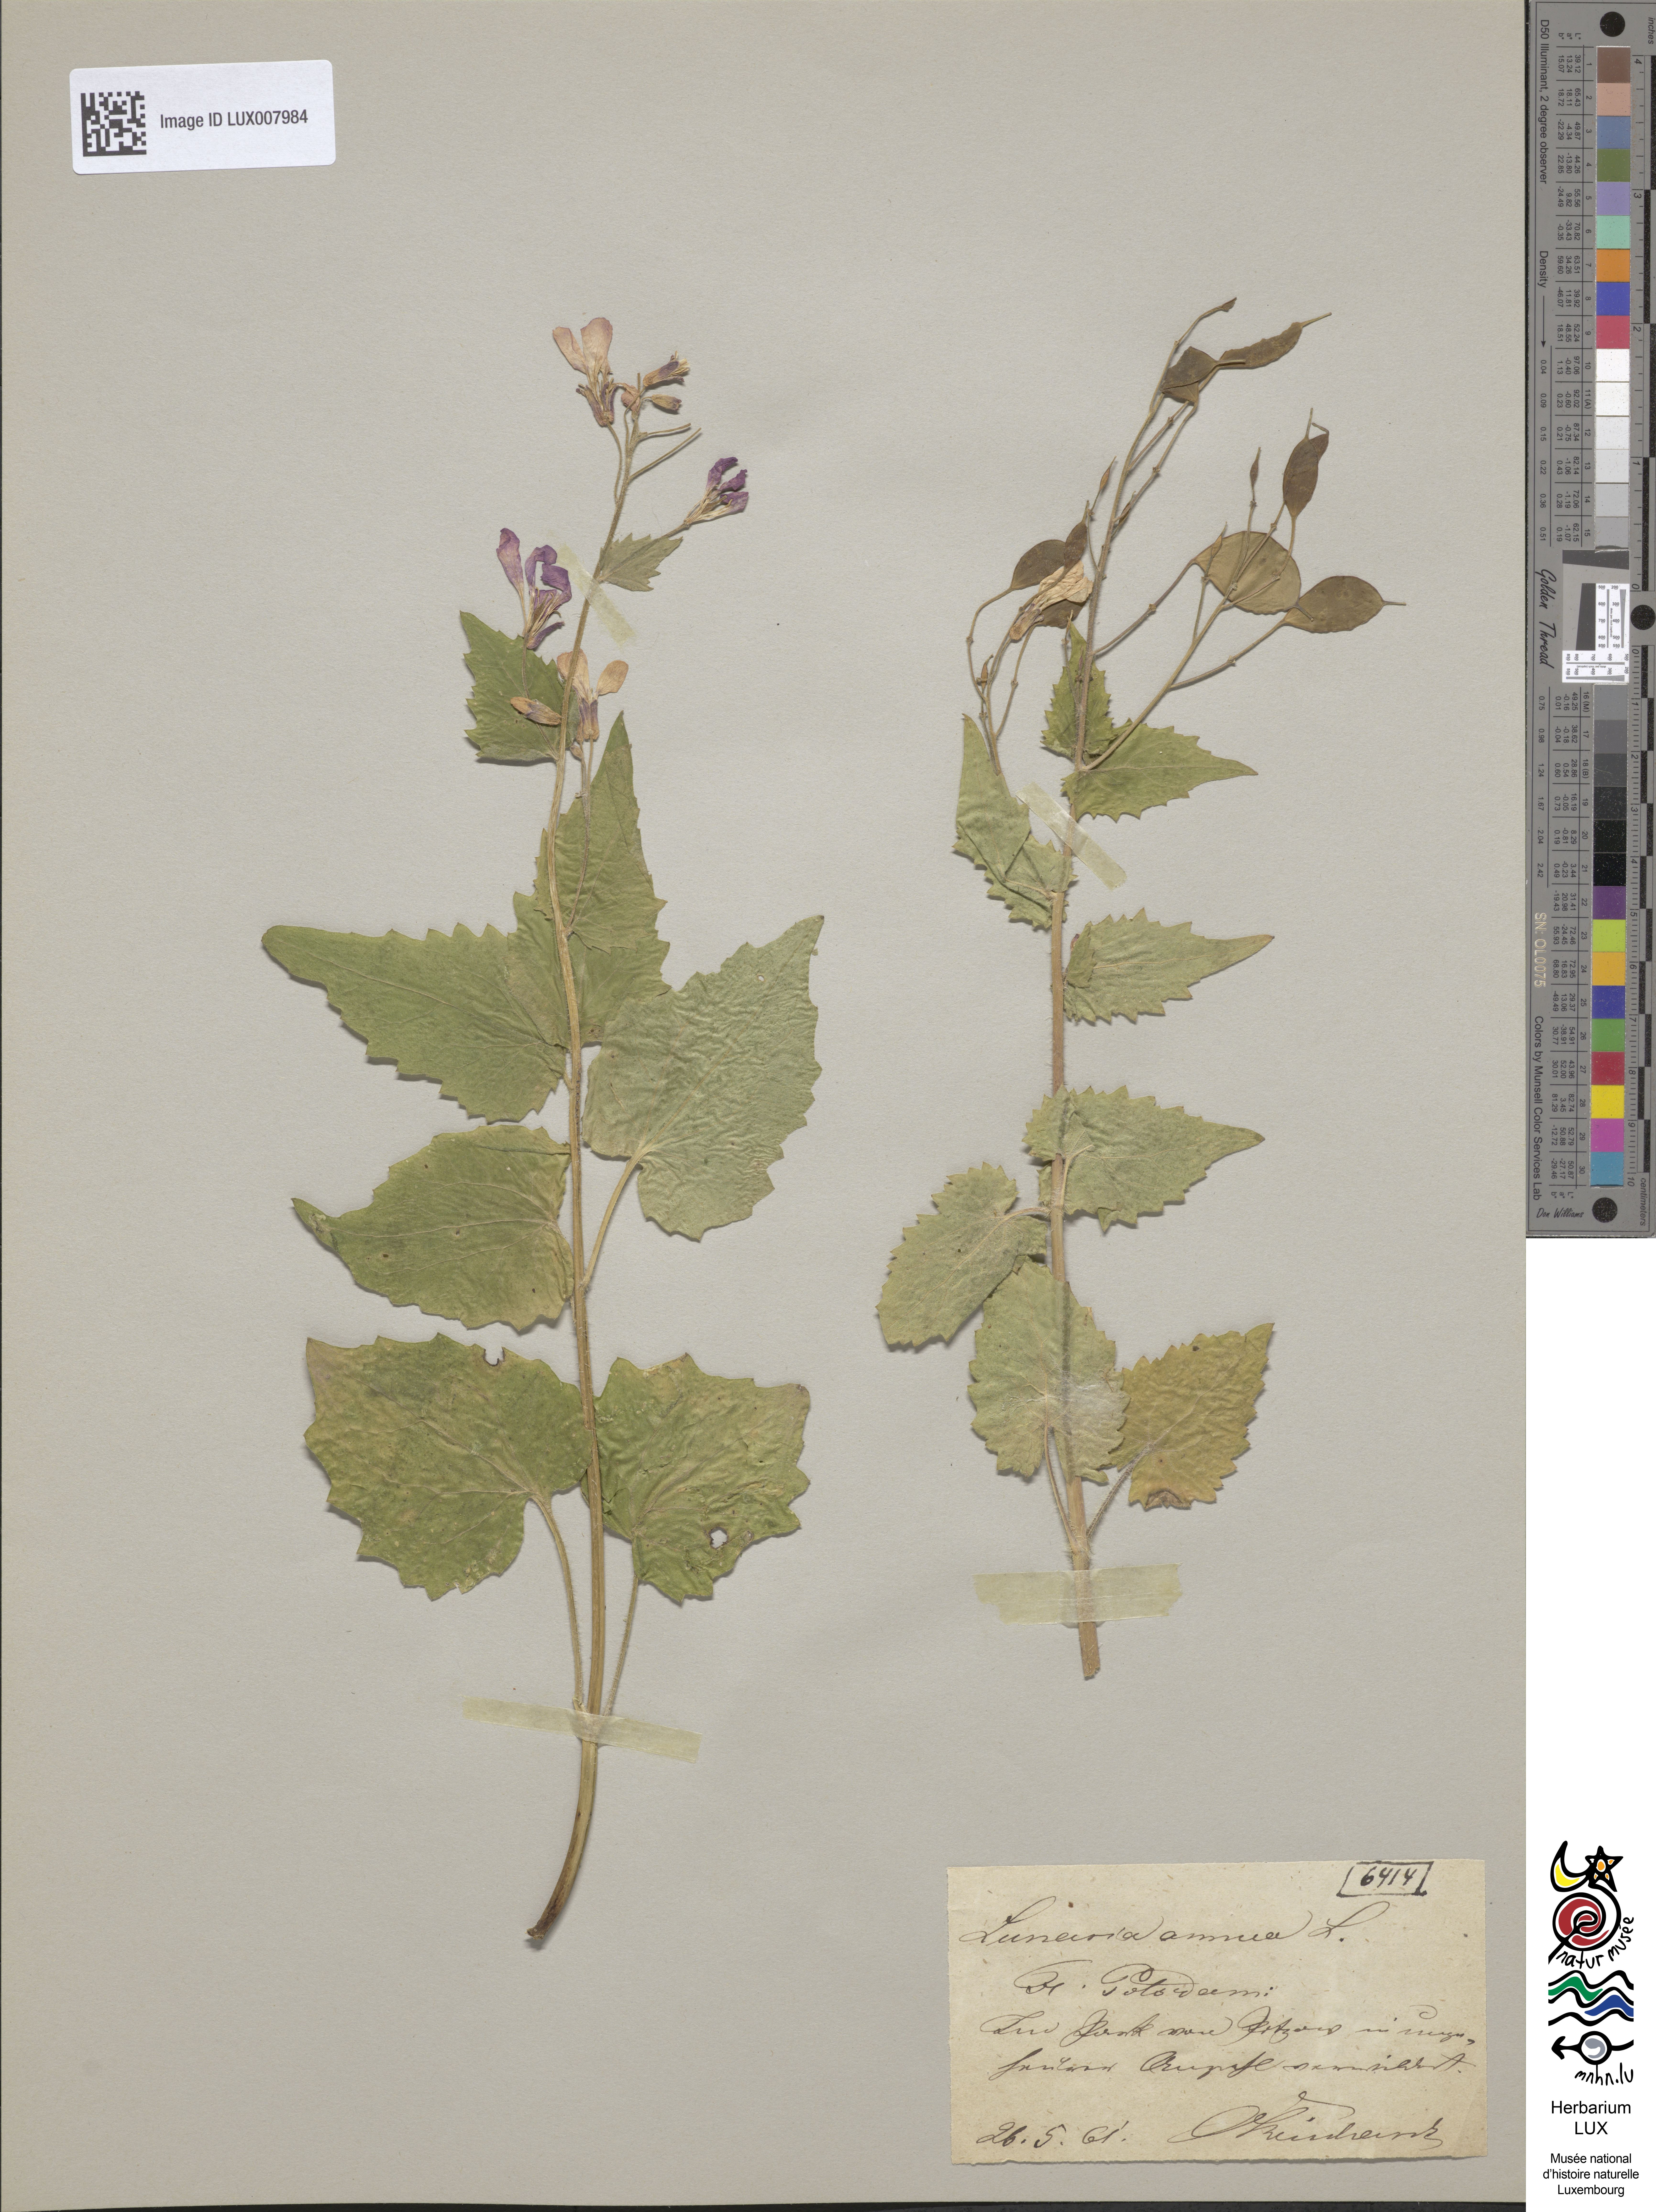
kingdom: Plantae
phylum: Tracheophyta
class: Magnoliopsida
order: Brassicales
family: Brassicaceae
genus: Lunaria
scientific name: Lunaria annua
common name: Honesty
